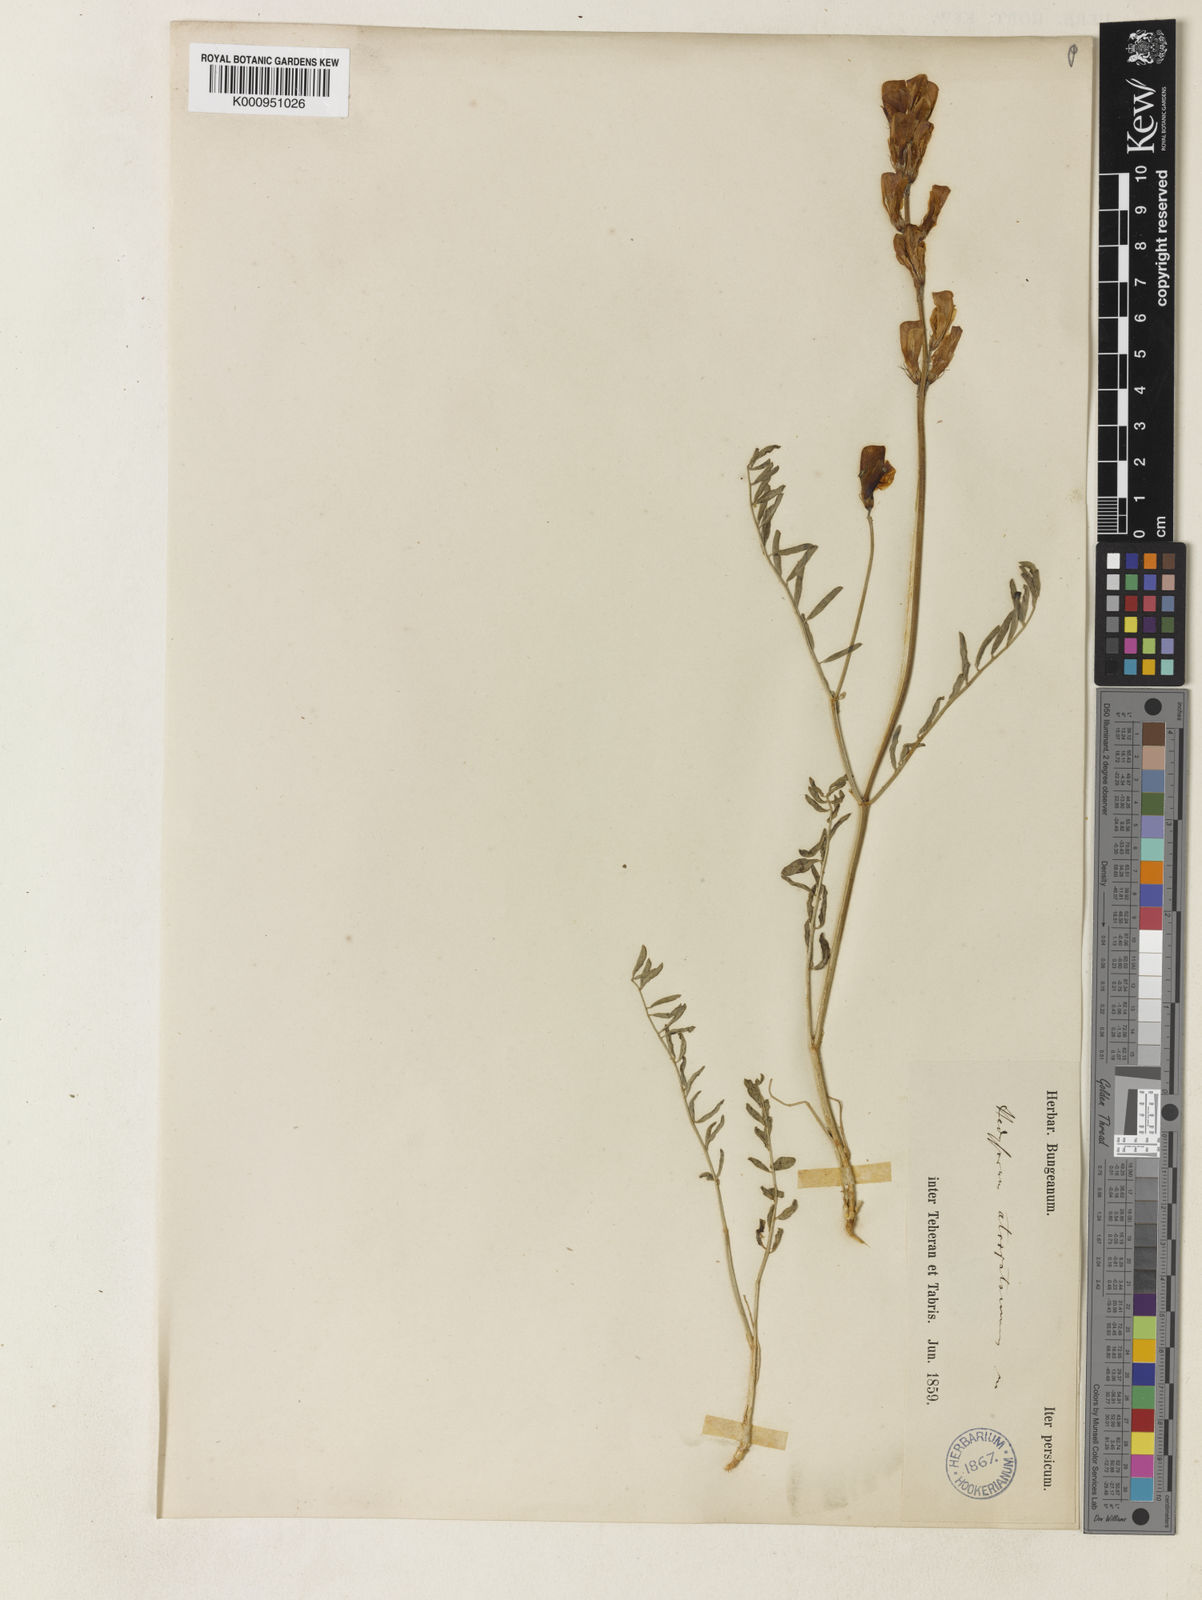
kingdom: Plantae
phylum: Tracheophyta
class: Magnoliopsida
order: Fabales
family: Fabaceae
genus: Hedysarum
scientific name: Hedysarum atropatanum
